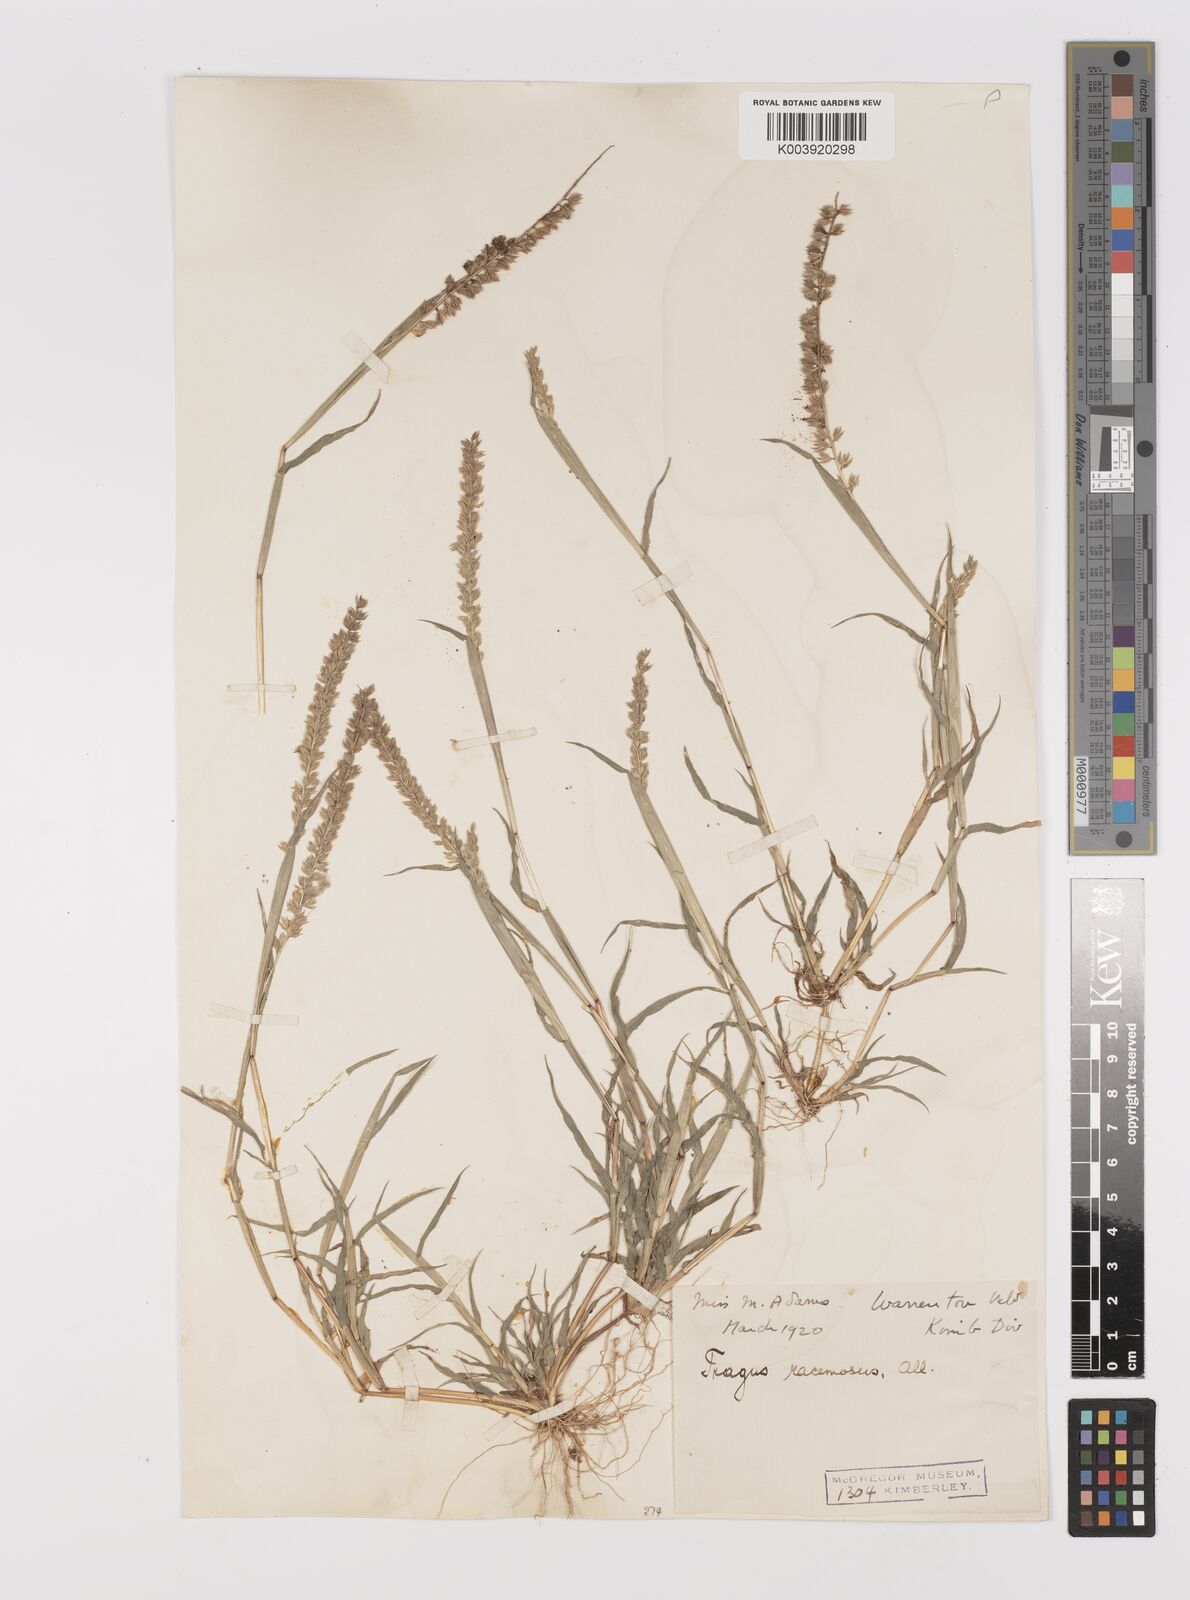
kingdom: Plantae
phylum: Tracheophyta
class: Liliopsida
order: Poales
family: Poaceae
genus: Tragus
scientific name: Tragus racemosus
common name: European bur-grass
